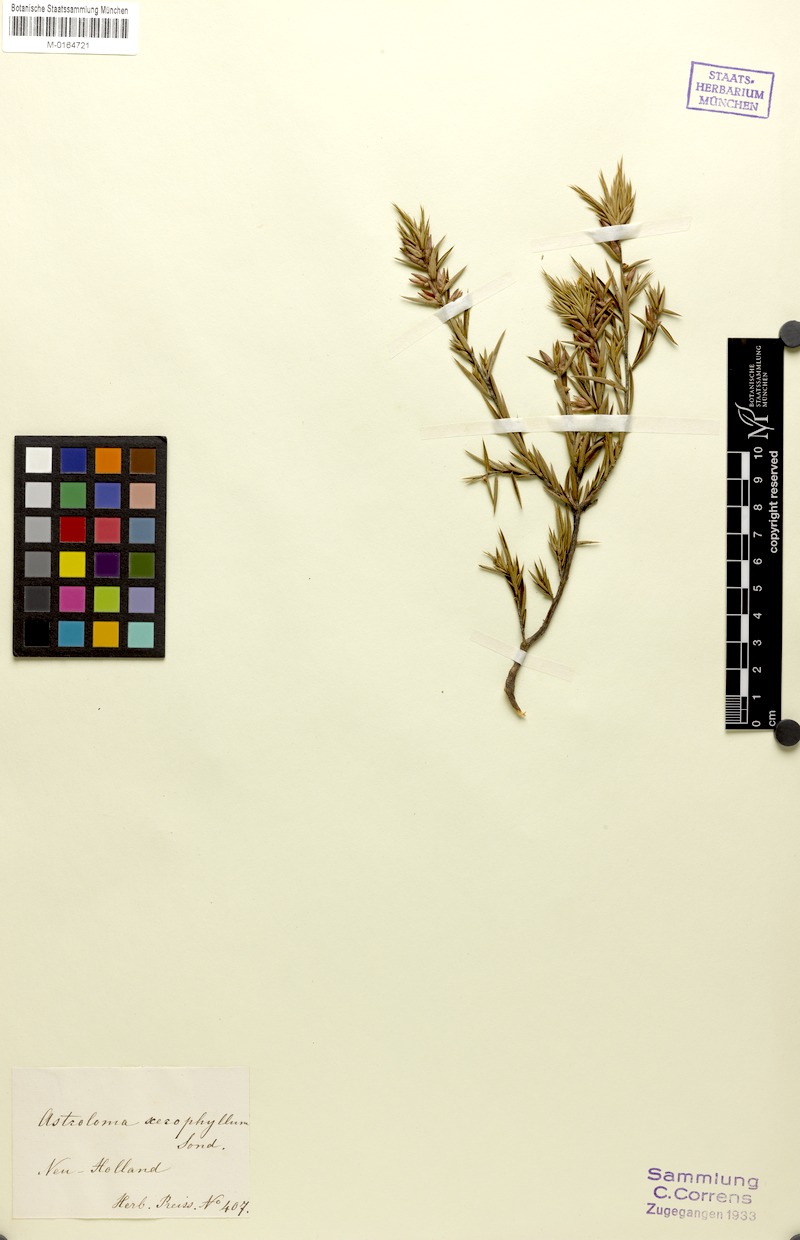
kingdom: Plantae
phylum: Tracheophyta
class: Magnoliopsida
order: Ericales
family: Ericaceae
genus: Styphelia
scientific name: Styphelia xerophylla
